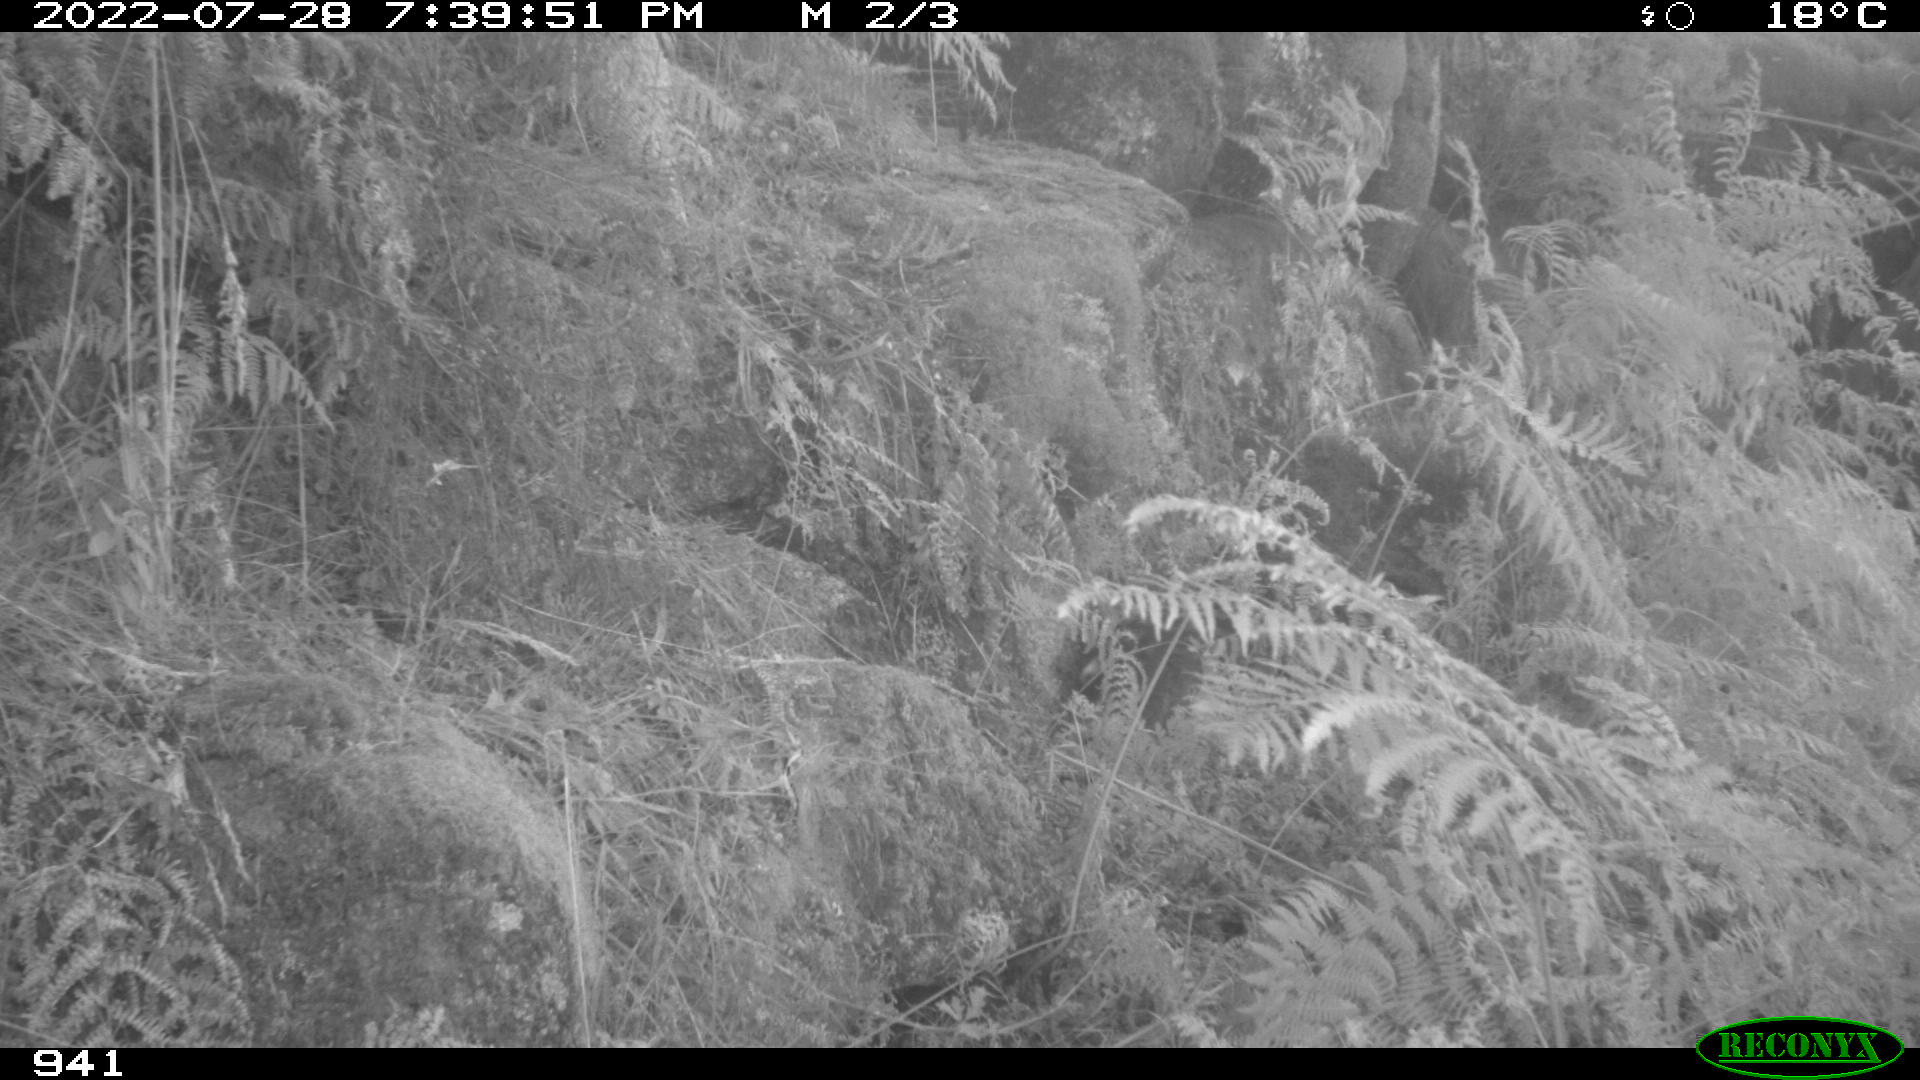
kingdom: Animalia
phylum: Chordata
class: Mammalia
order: Artiodactyla
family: Suidae
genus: Sus
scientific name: Sus scrofa
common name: Wild boar
